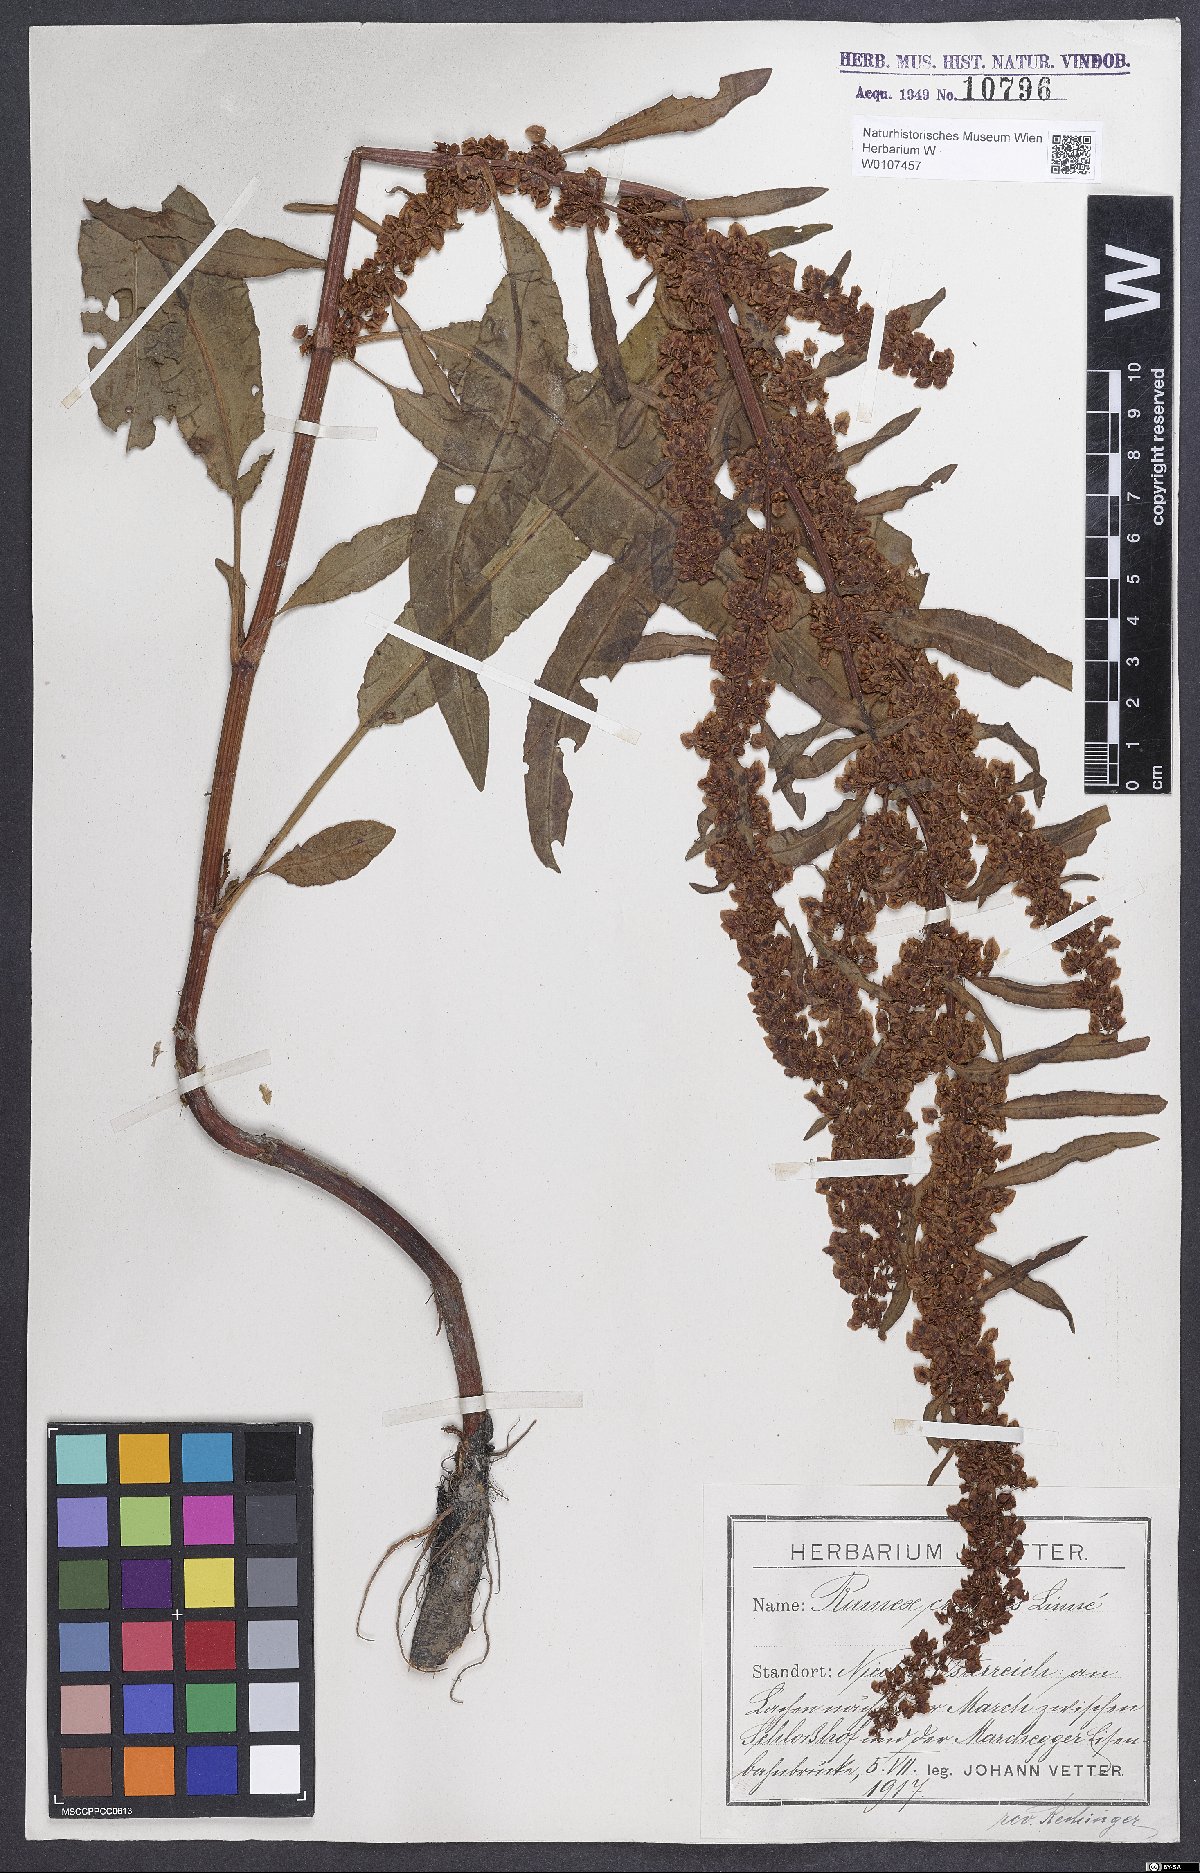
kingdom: Plantae
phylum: Tracheophyta
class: Magnoliopsida
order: Caryophyllales
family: Polygonaceae
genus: Rumex
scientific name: Rumex crispus
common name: Curled dock
